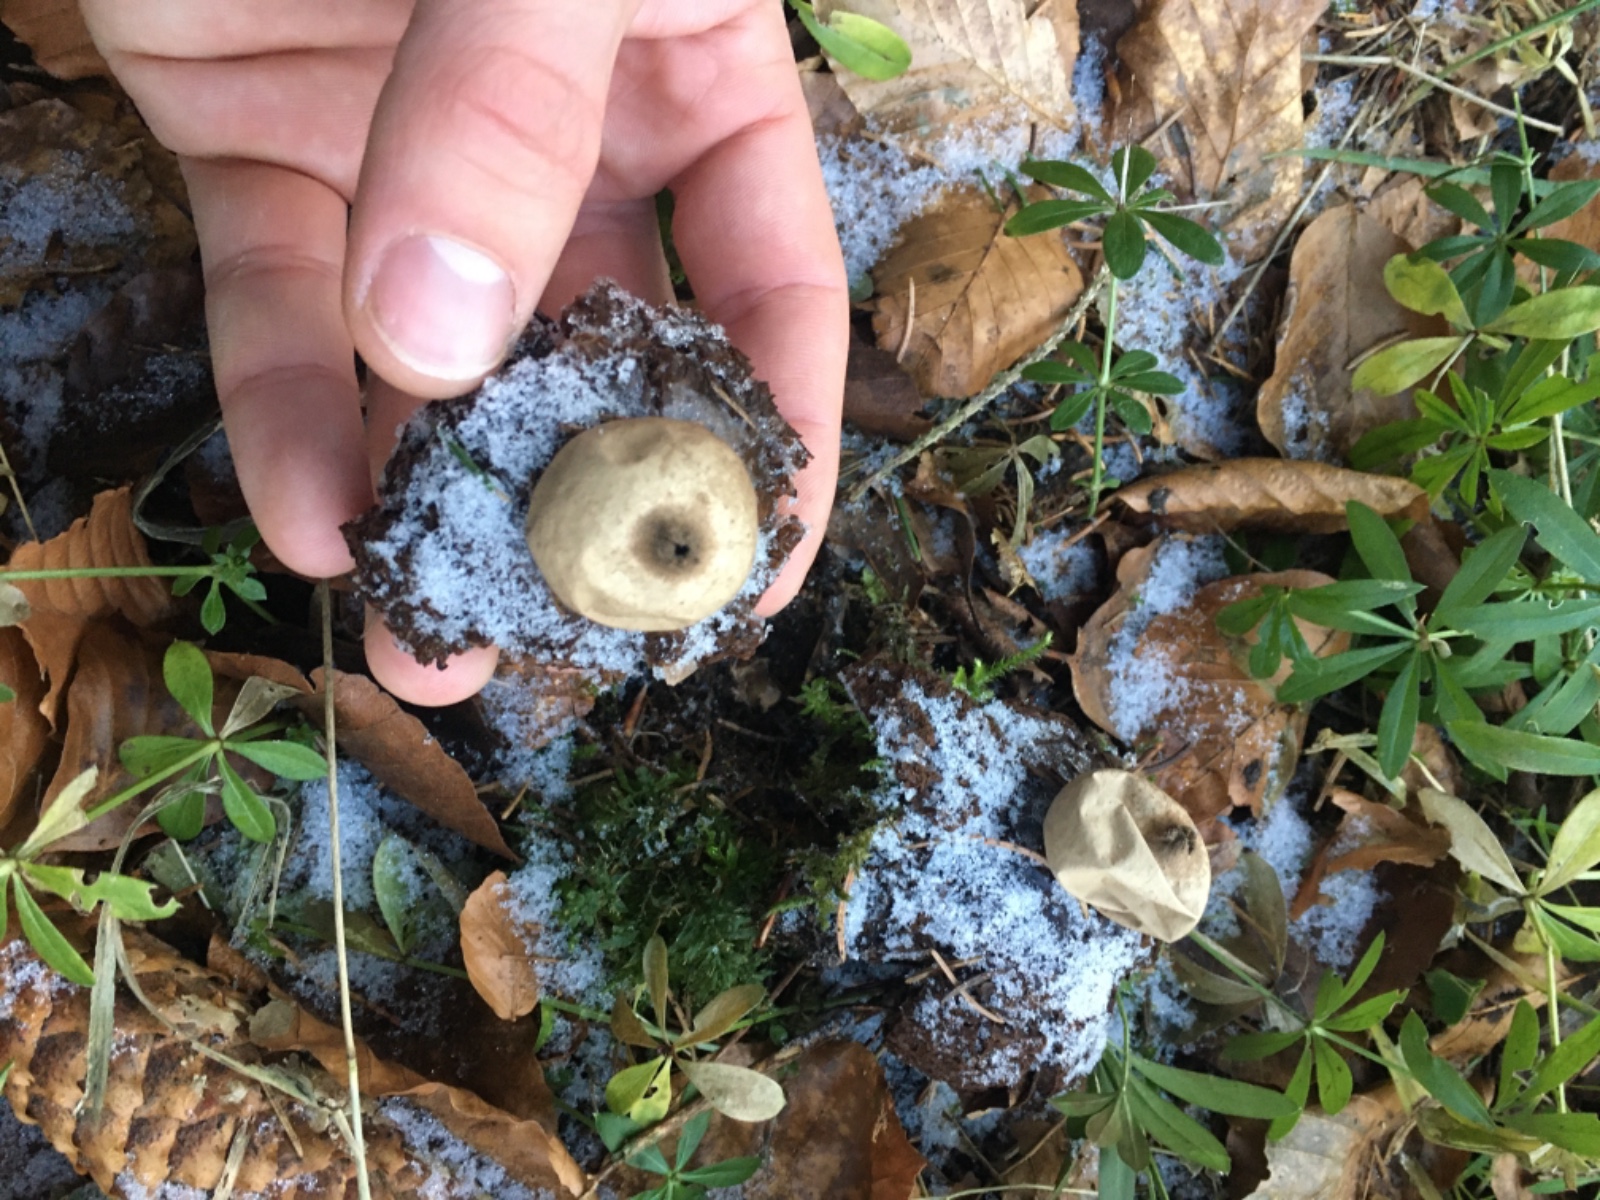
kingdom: Fungi
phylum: Basidiomycota
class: Agaricomycetes
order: Geastrales
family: Geastraceae
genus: Geastrum
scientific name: Geastrum michelianum
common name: kødet stjernebold
